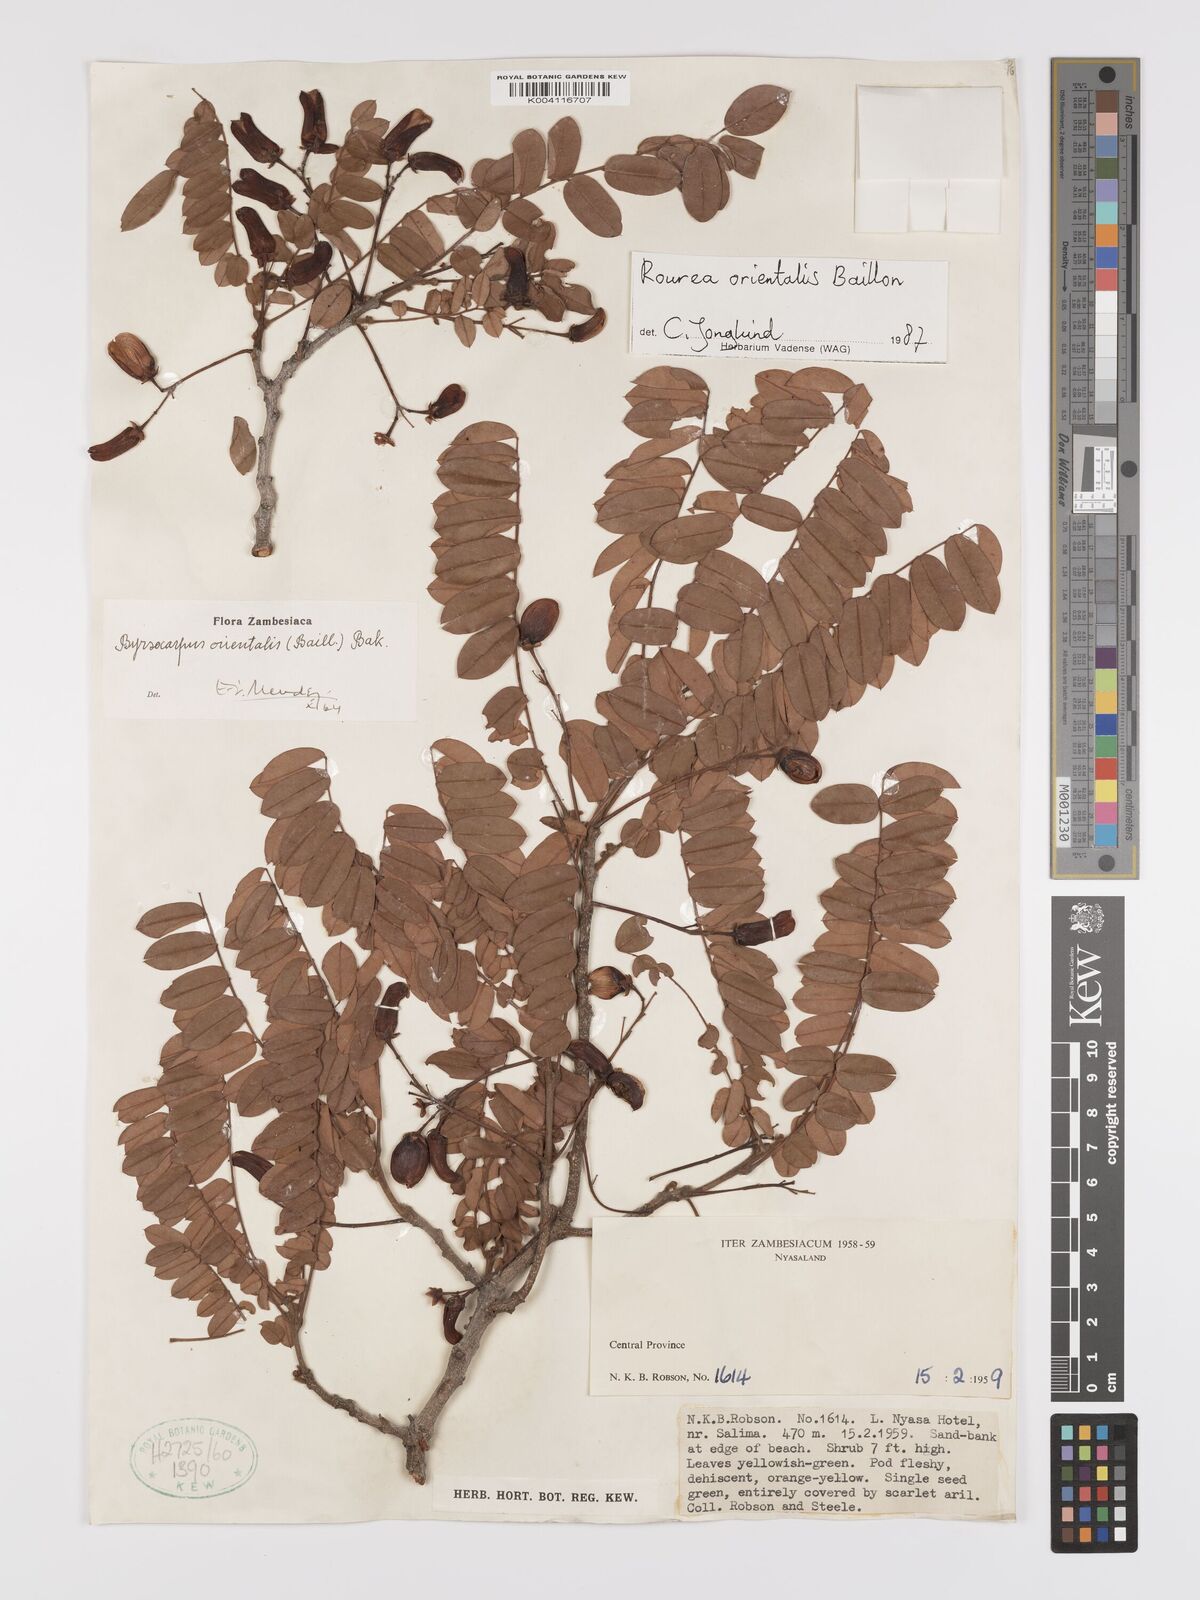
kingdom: Plantae
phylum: Tracheophyta
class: Magnoliopsida
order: Oxalidales
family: Connaraceae
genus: Rourea
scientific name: Rourea orientalis
